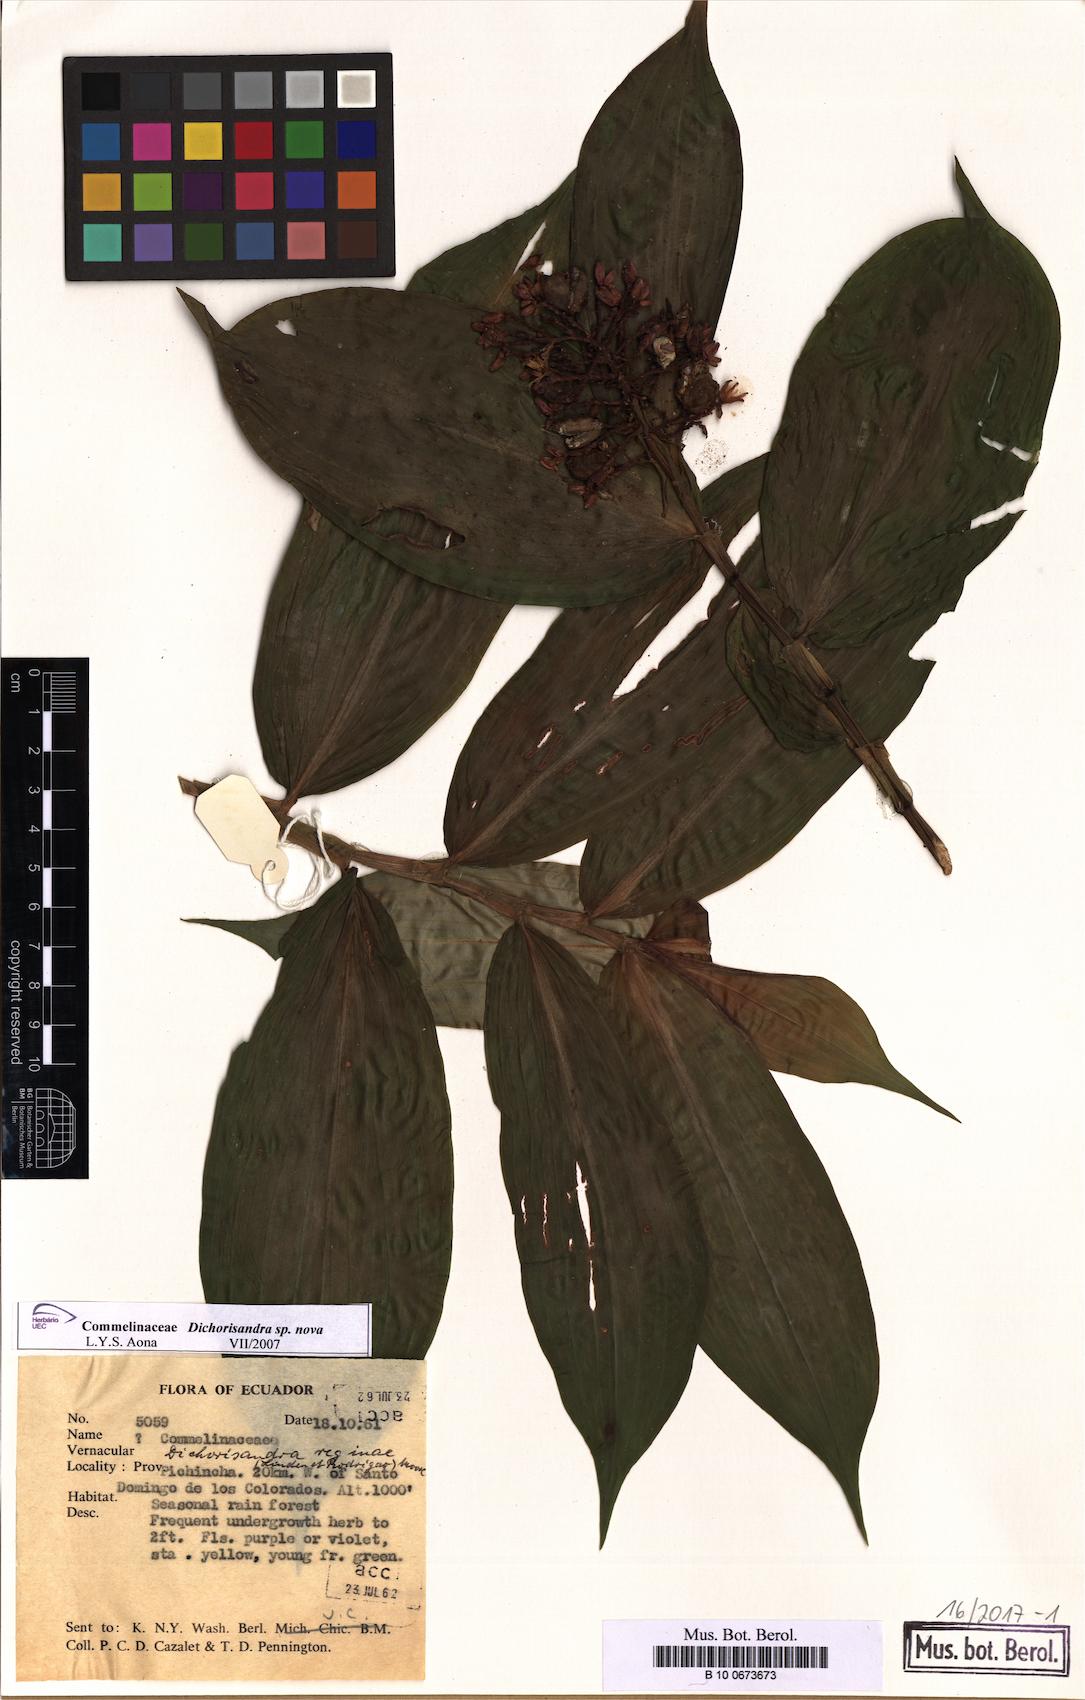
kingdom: Plantae
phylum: Tracheophyta
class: Liliopsida
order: Commelinales
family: Commelinaceae
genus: Dichorisandra
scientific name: Dichorisandra
